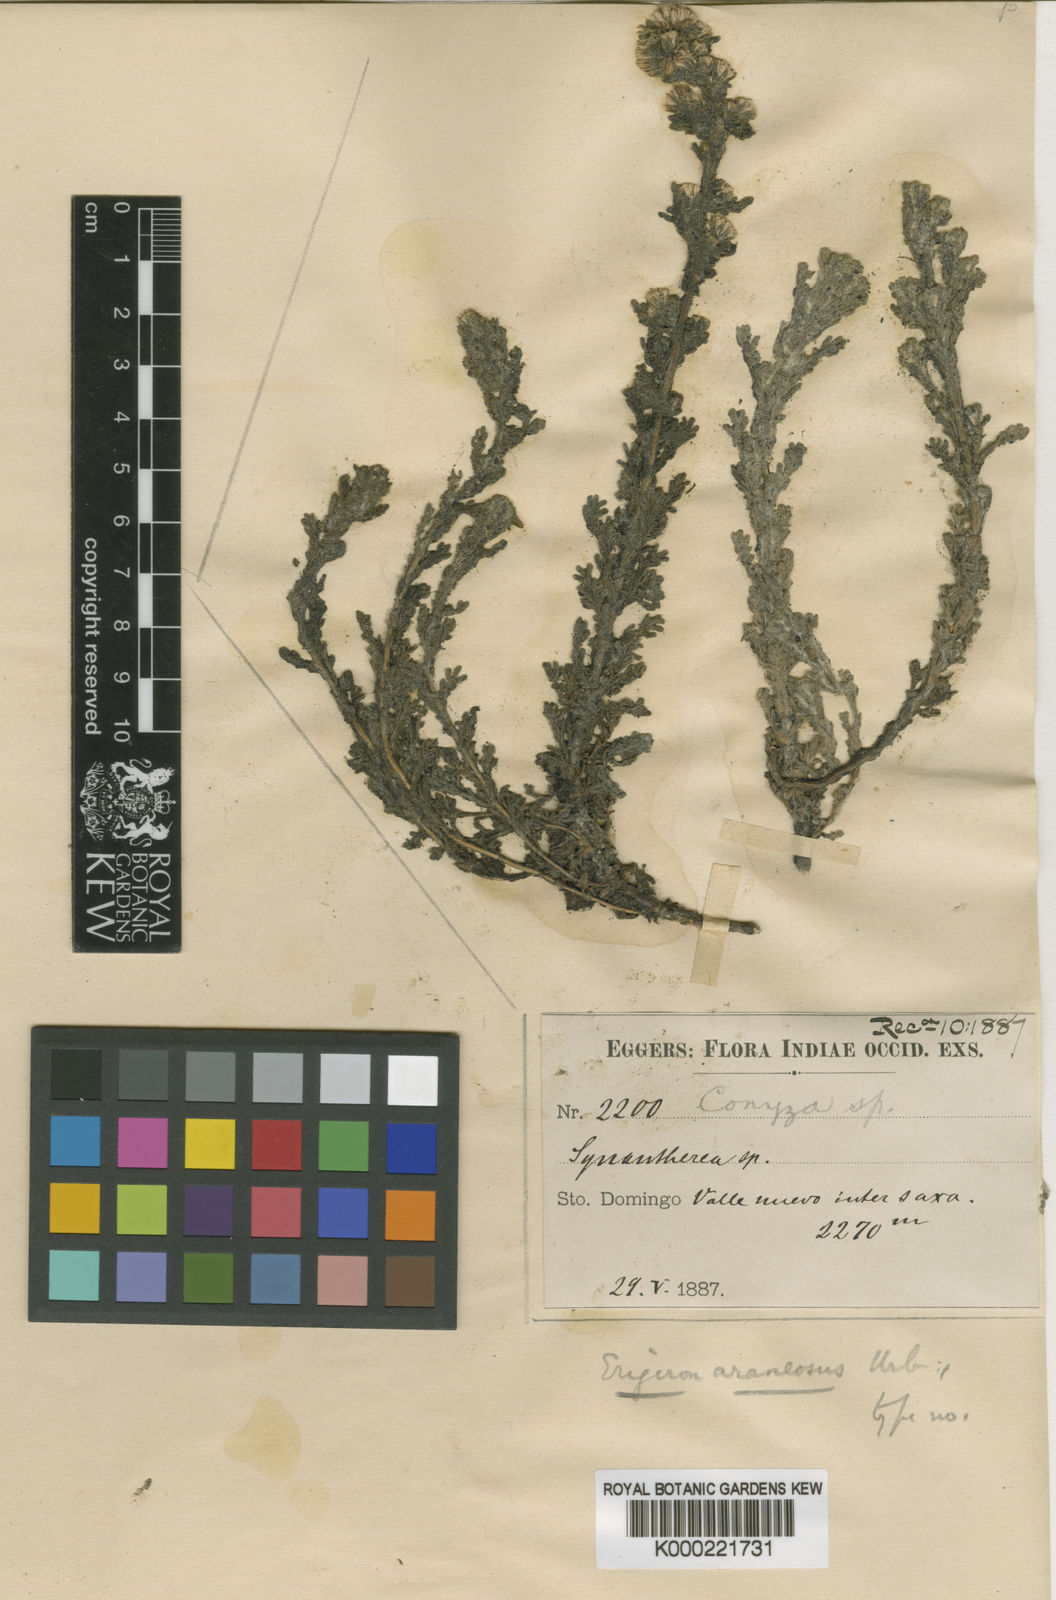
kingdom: Plantae
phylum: Tracheophyta
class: Magnoliopsida
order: Asterales
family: Asteraceae
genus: Laennecia
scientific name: Laennecia araneosa
